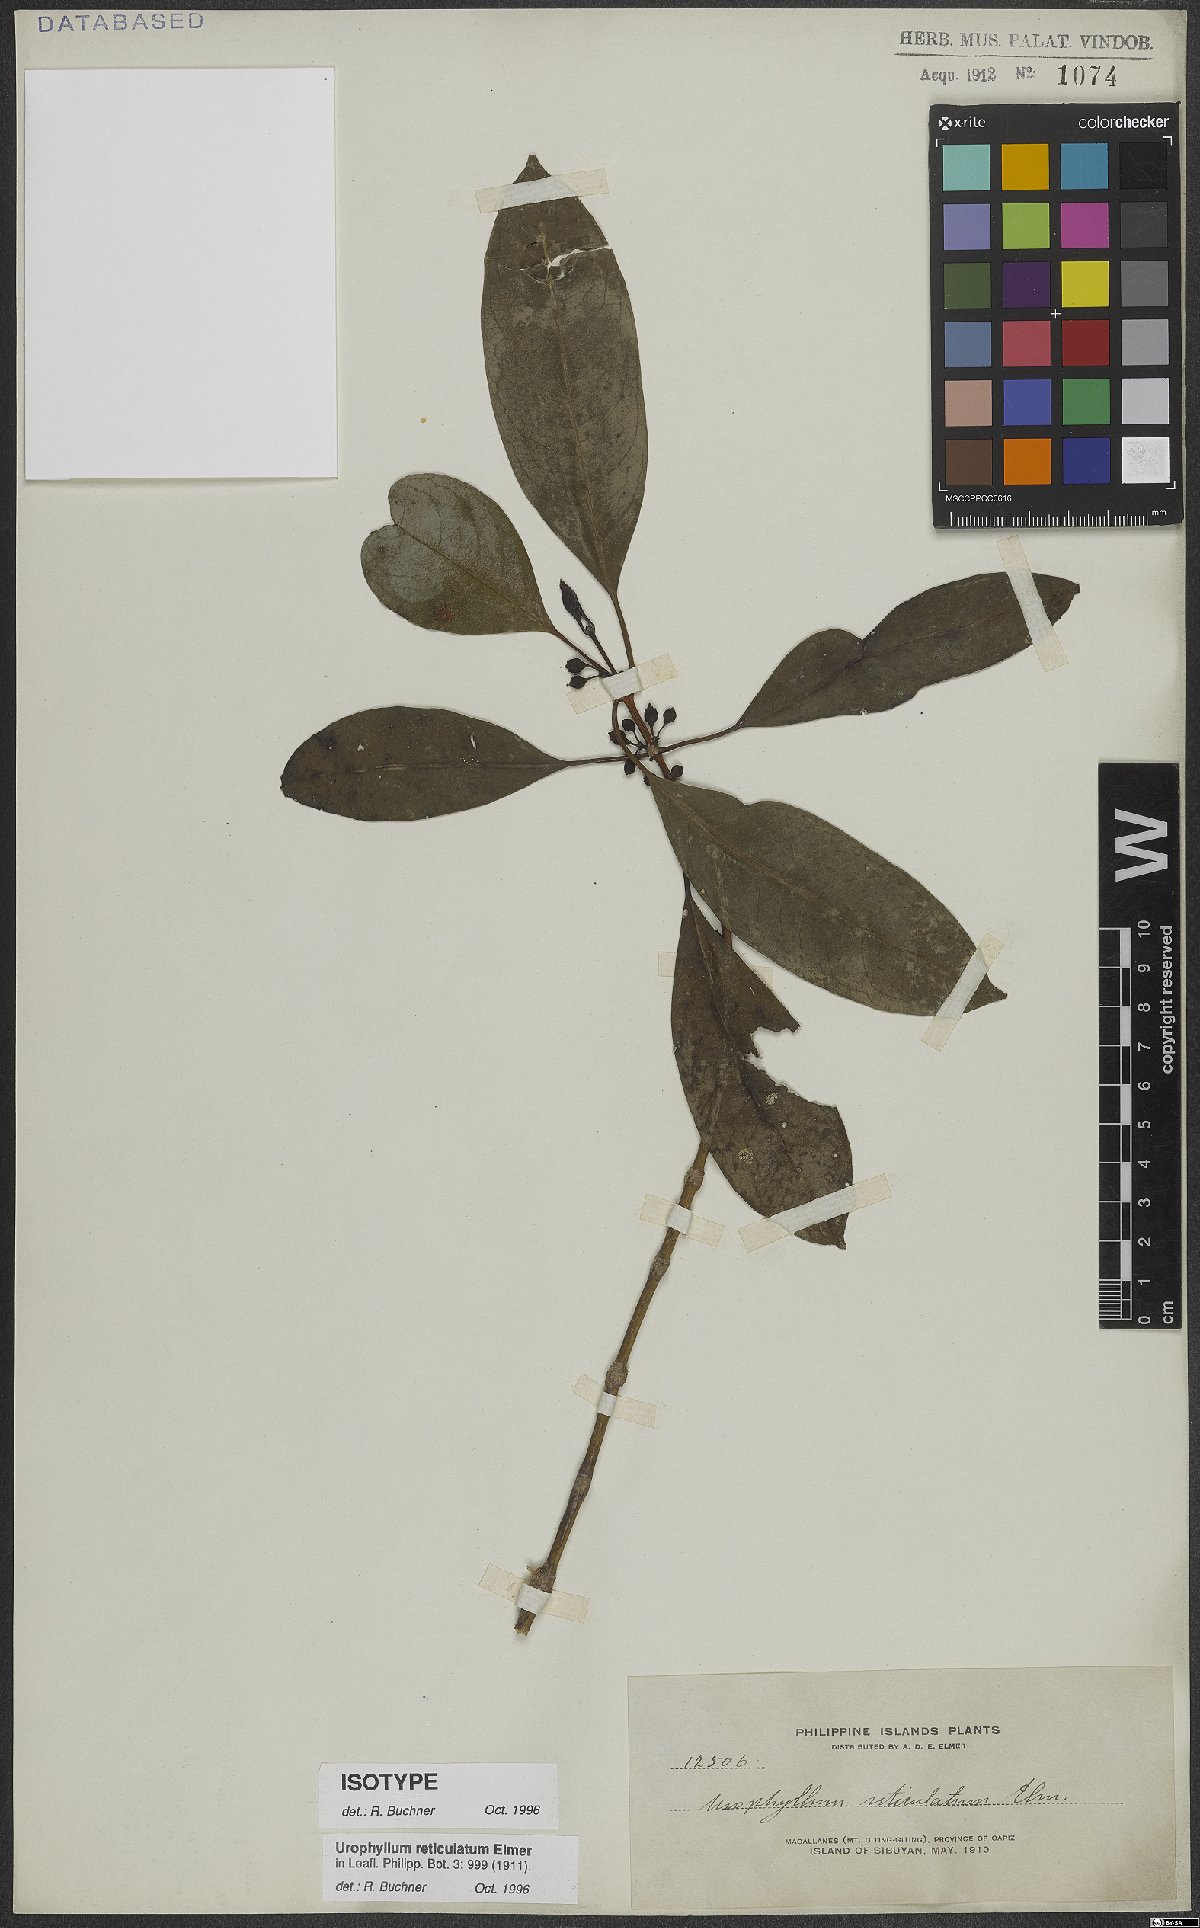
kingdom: Plantae
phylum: Tracheophyta
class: Magnoliopsida
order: Gentianales
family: Rubiaceae
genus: Urophyllum
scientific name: Urophyllum reticulatum
